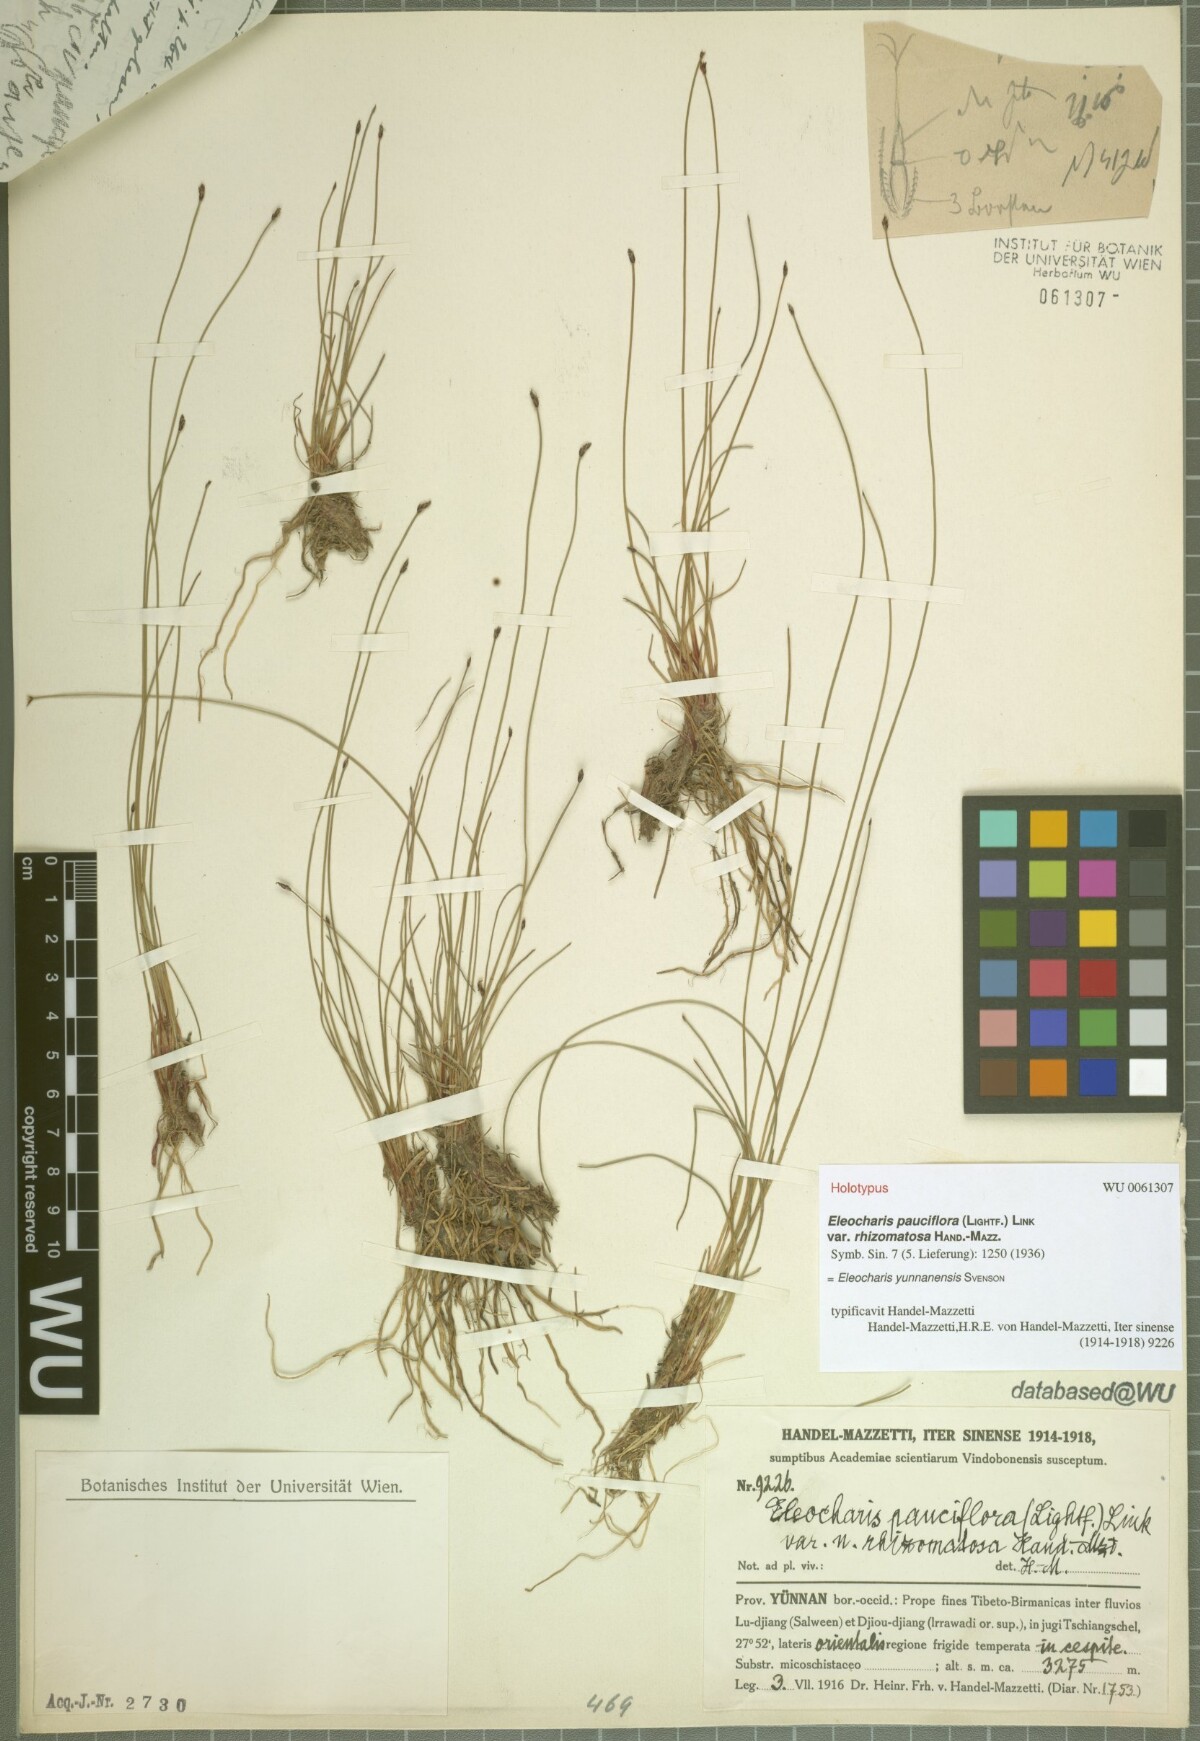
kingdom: Plantae
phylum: Tracheophyta
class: Liliopsida
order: Poales
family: Cyperaceae
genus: Eleocharis
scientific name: Eleocharis yunnanensis
